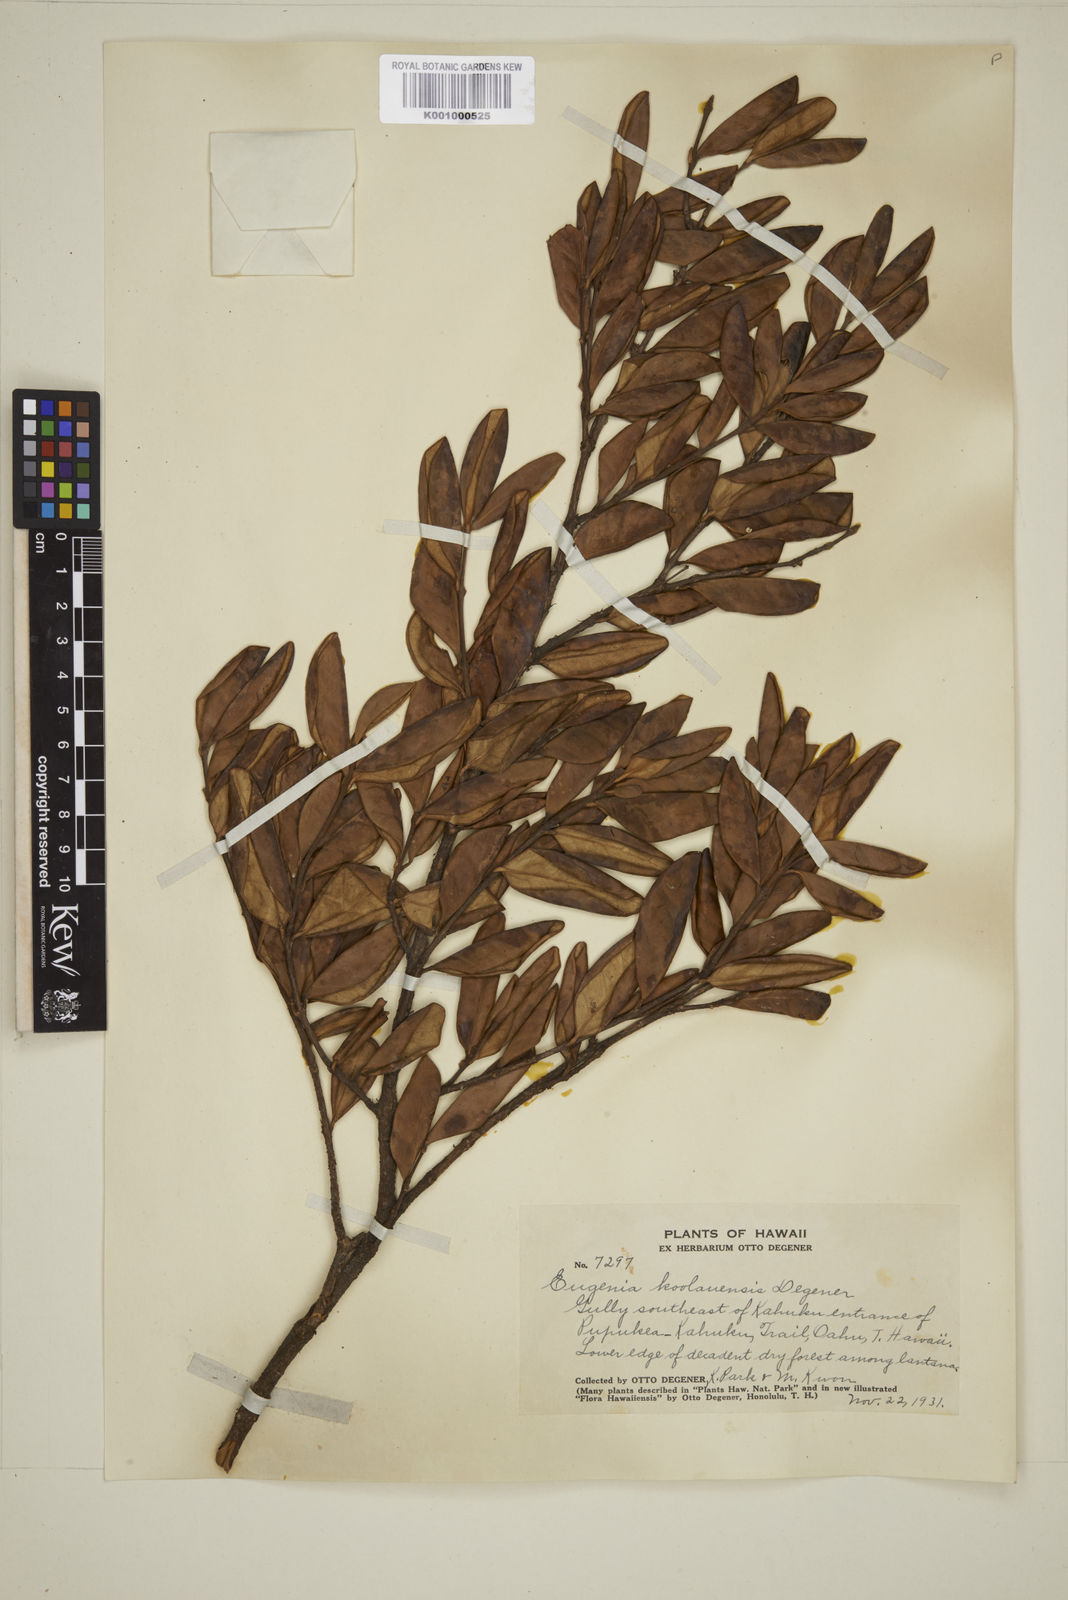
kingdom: Plantae
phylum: Tracheophyta
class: Magnoliopsida
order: Myrtales
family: Myrtaceae
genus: Eugenia
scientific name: Eugenia koolauensis
